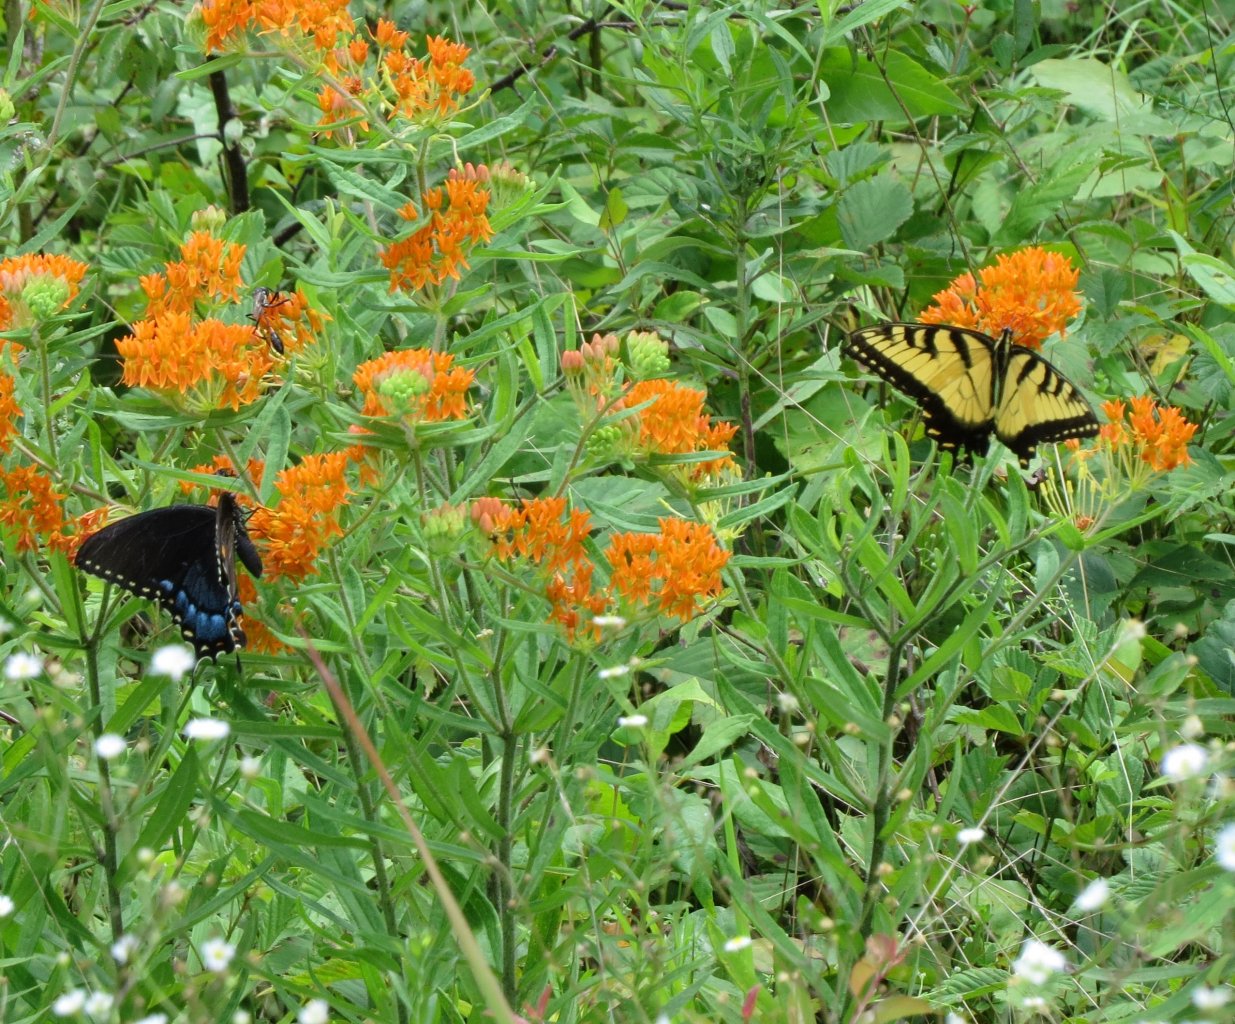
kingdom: Animalia
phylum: Arthropoda
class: Insecta
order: Lepidoptera
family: Papilionidae
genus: Pterourus
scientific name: Pterourus glaucus
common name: Eastern Tiger Swallowtail
